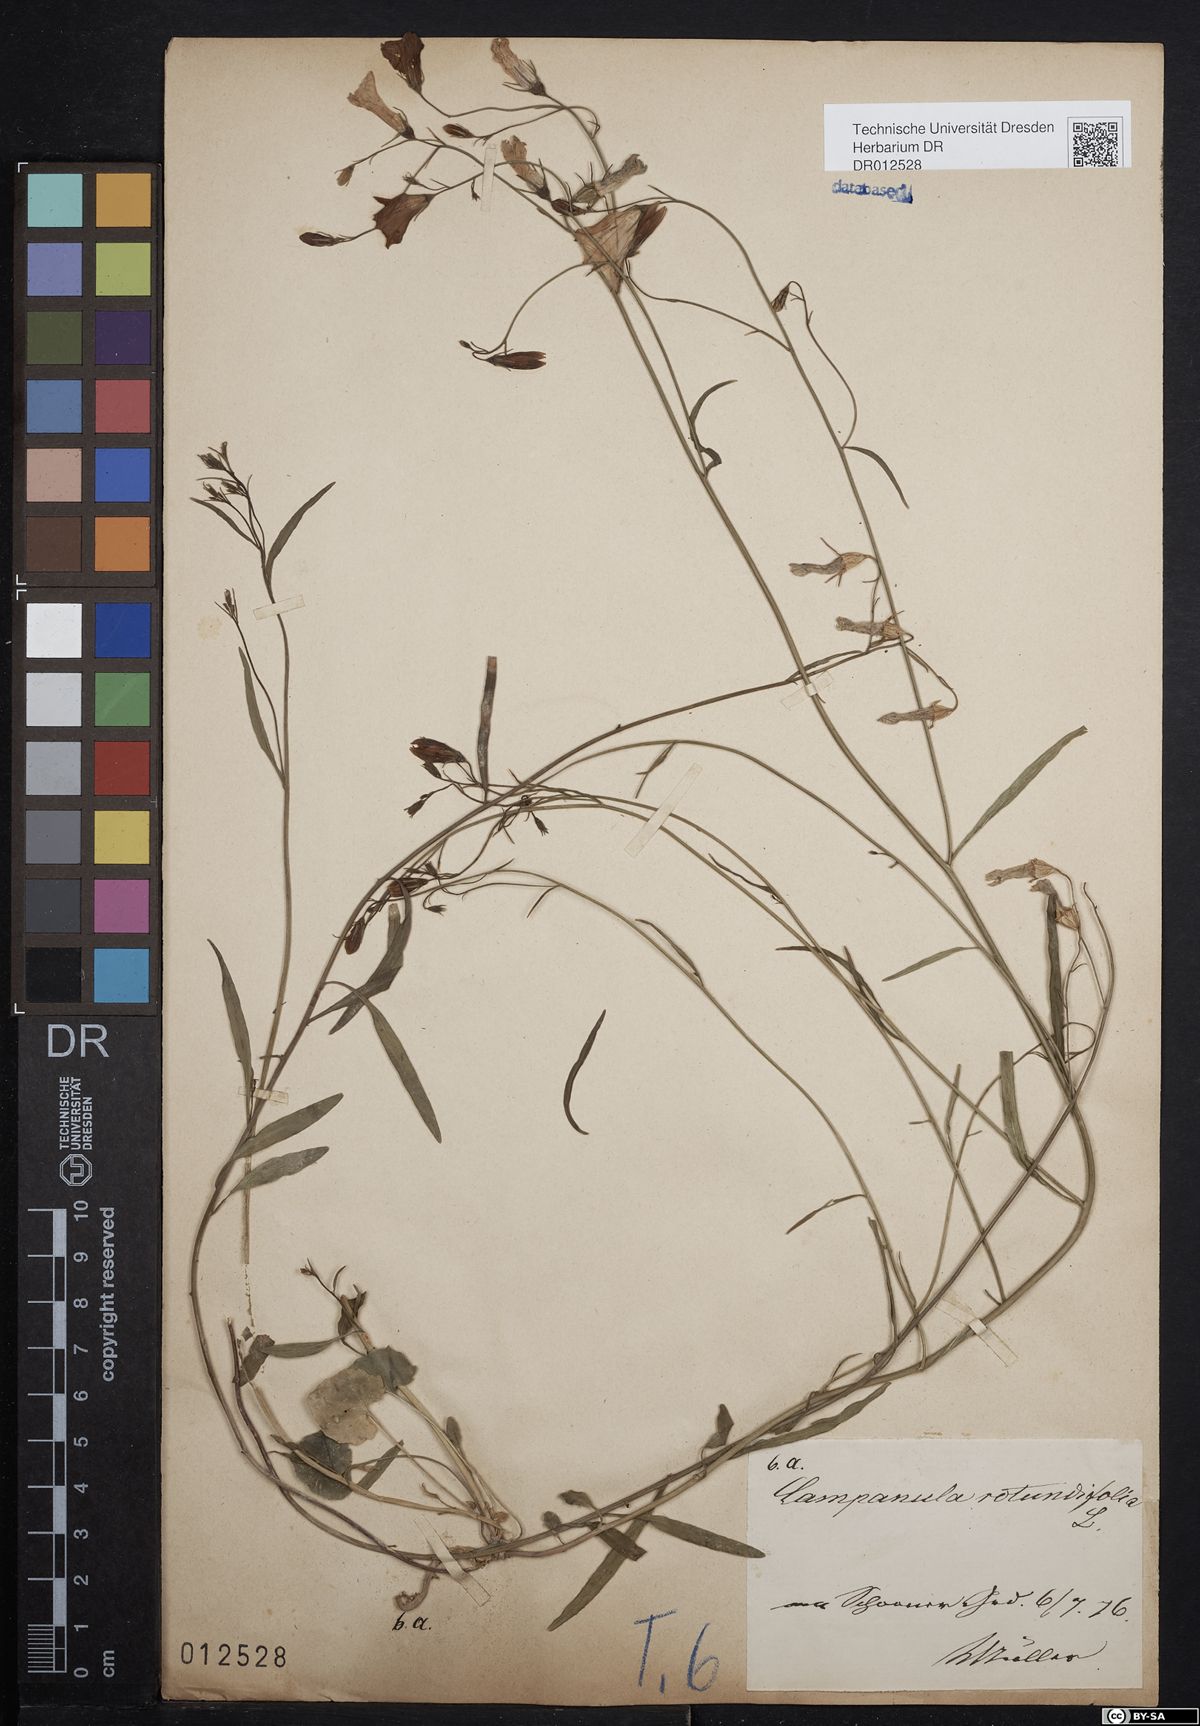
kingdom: Plantae
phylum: Tracheophyta
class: Magnoliopsida
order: Asterales
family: Campanulaceae
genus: Campanula
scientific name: Campanula rotundifolia
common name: Harebell
